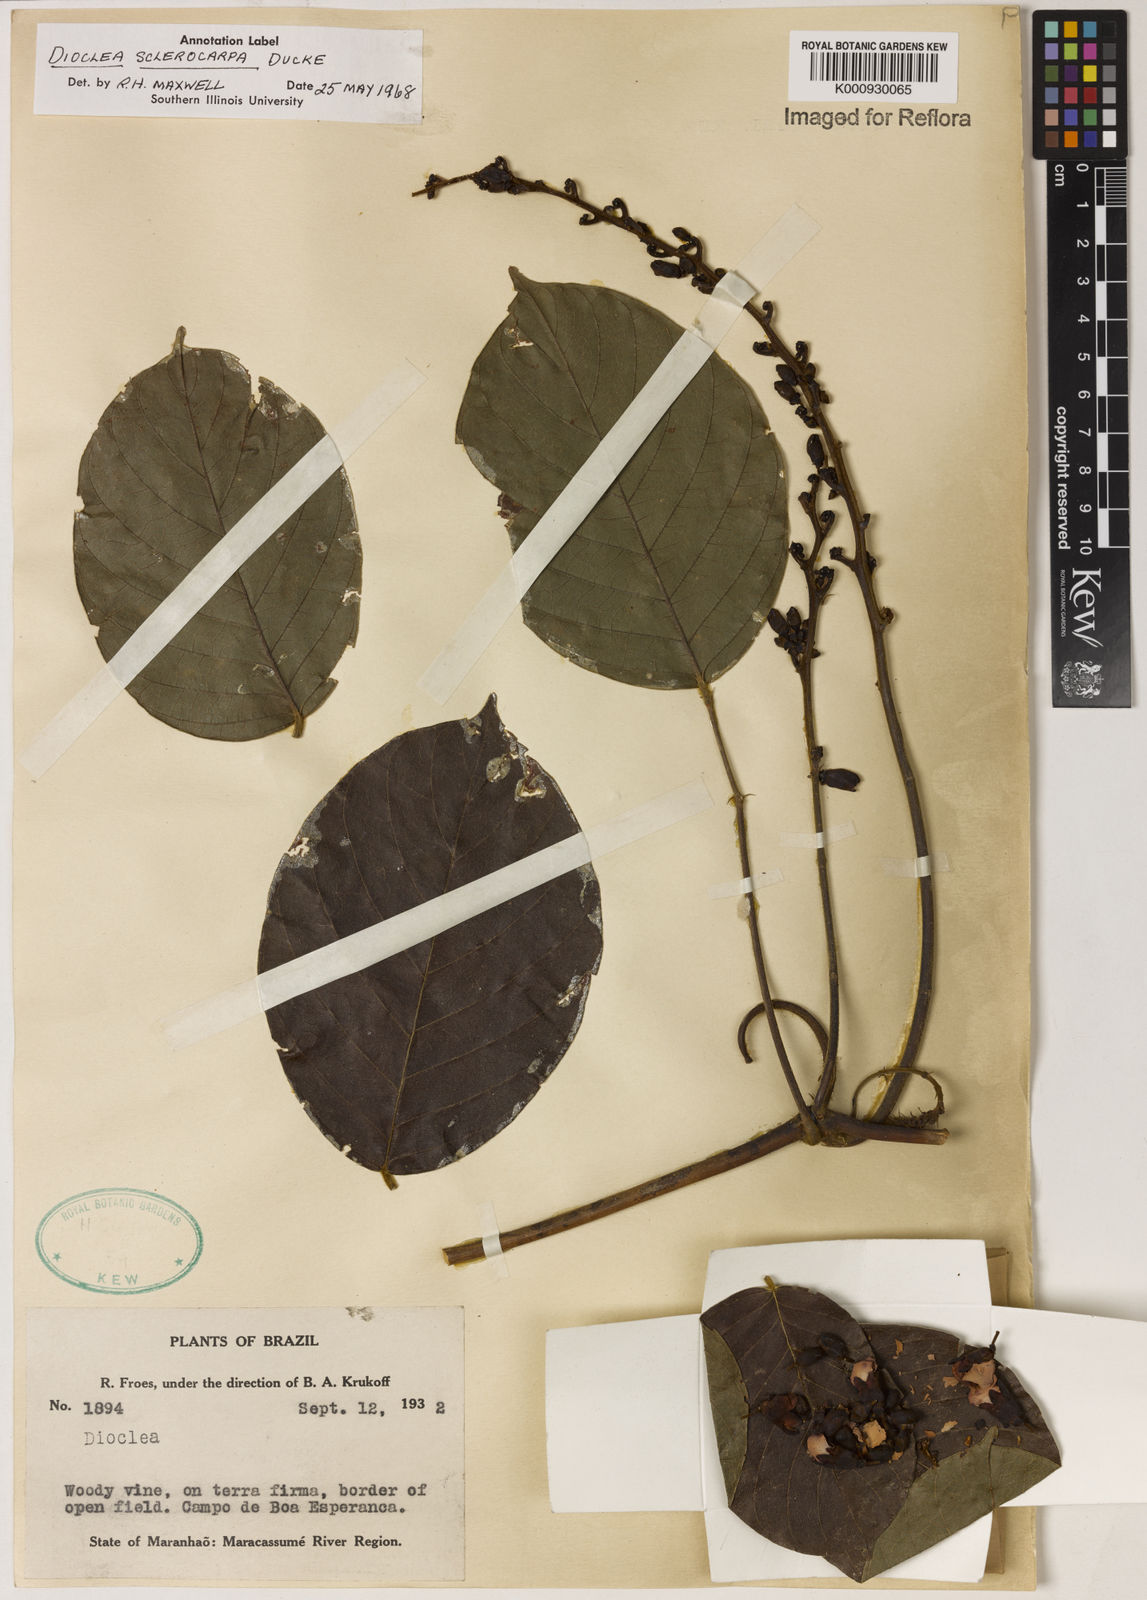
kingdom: Plantae
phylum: Tracheophyta
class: Magnoliopsida
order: Fabales
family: Fabaceae
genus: Macropsychanthus
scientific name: Macropsychanthus sclerocarpus
